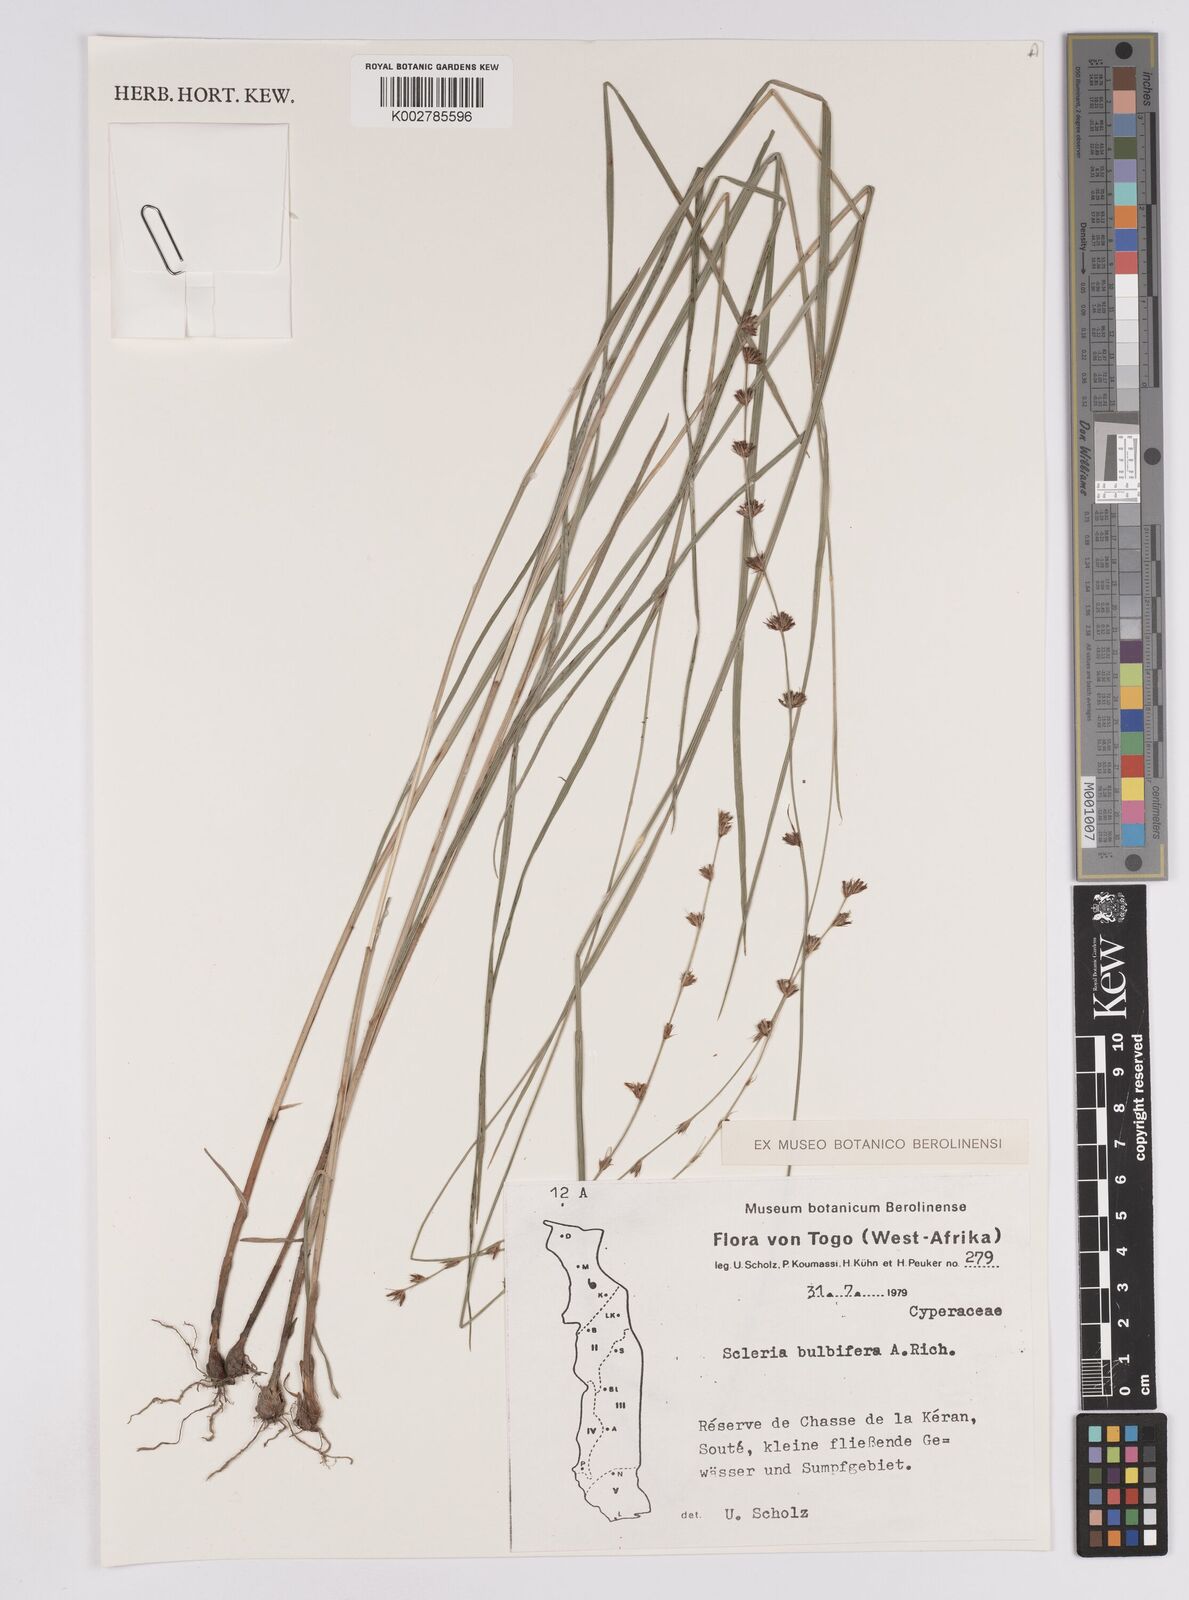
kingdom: Plantae
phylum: Tracheophyta
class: Liliopsida
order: Poales
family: Cyperaceae
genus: Scleria
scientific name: Scleria bulbifera
